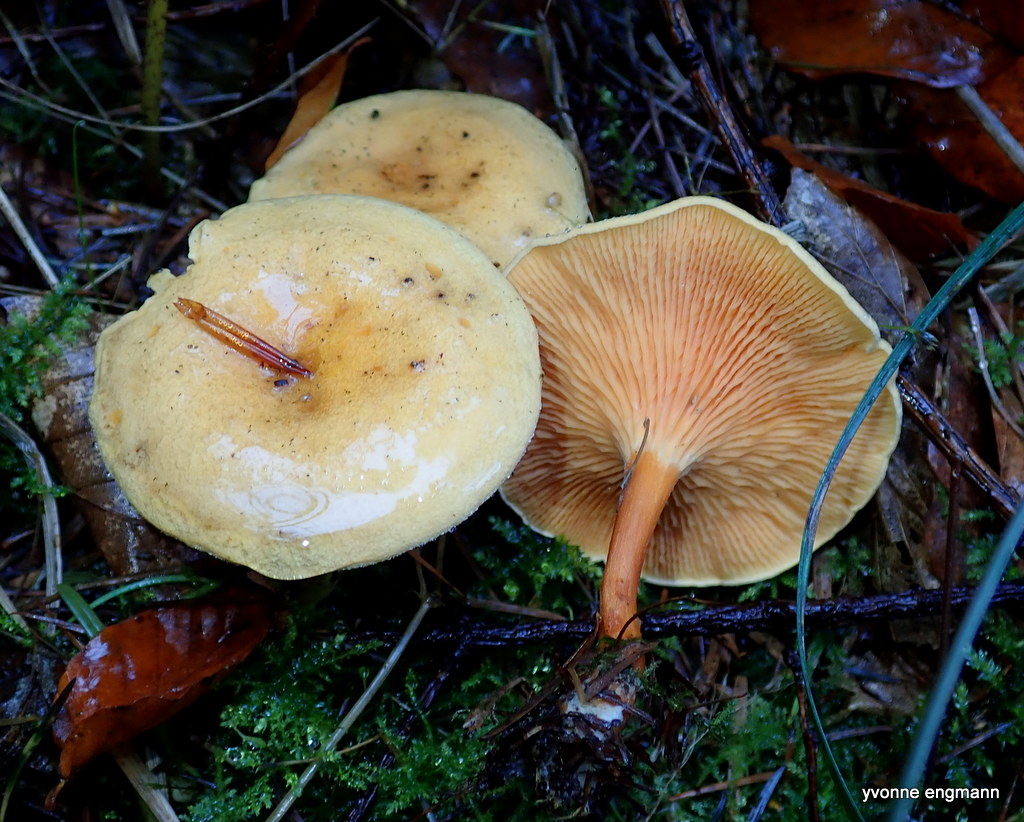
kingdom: Fungi
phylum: Basidiomycota
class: Agaricomycetes
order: Boletales
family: Hygrophoropsidaceae
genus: Hygrophoropsis
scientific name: Hygrophoropsis aurantiaca
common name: almindelig orangekantarel
